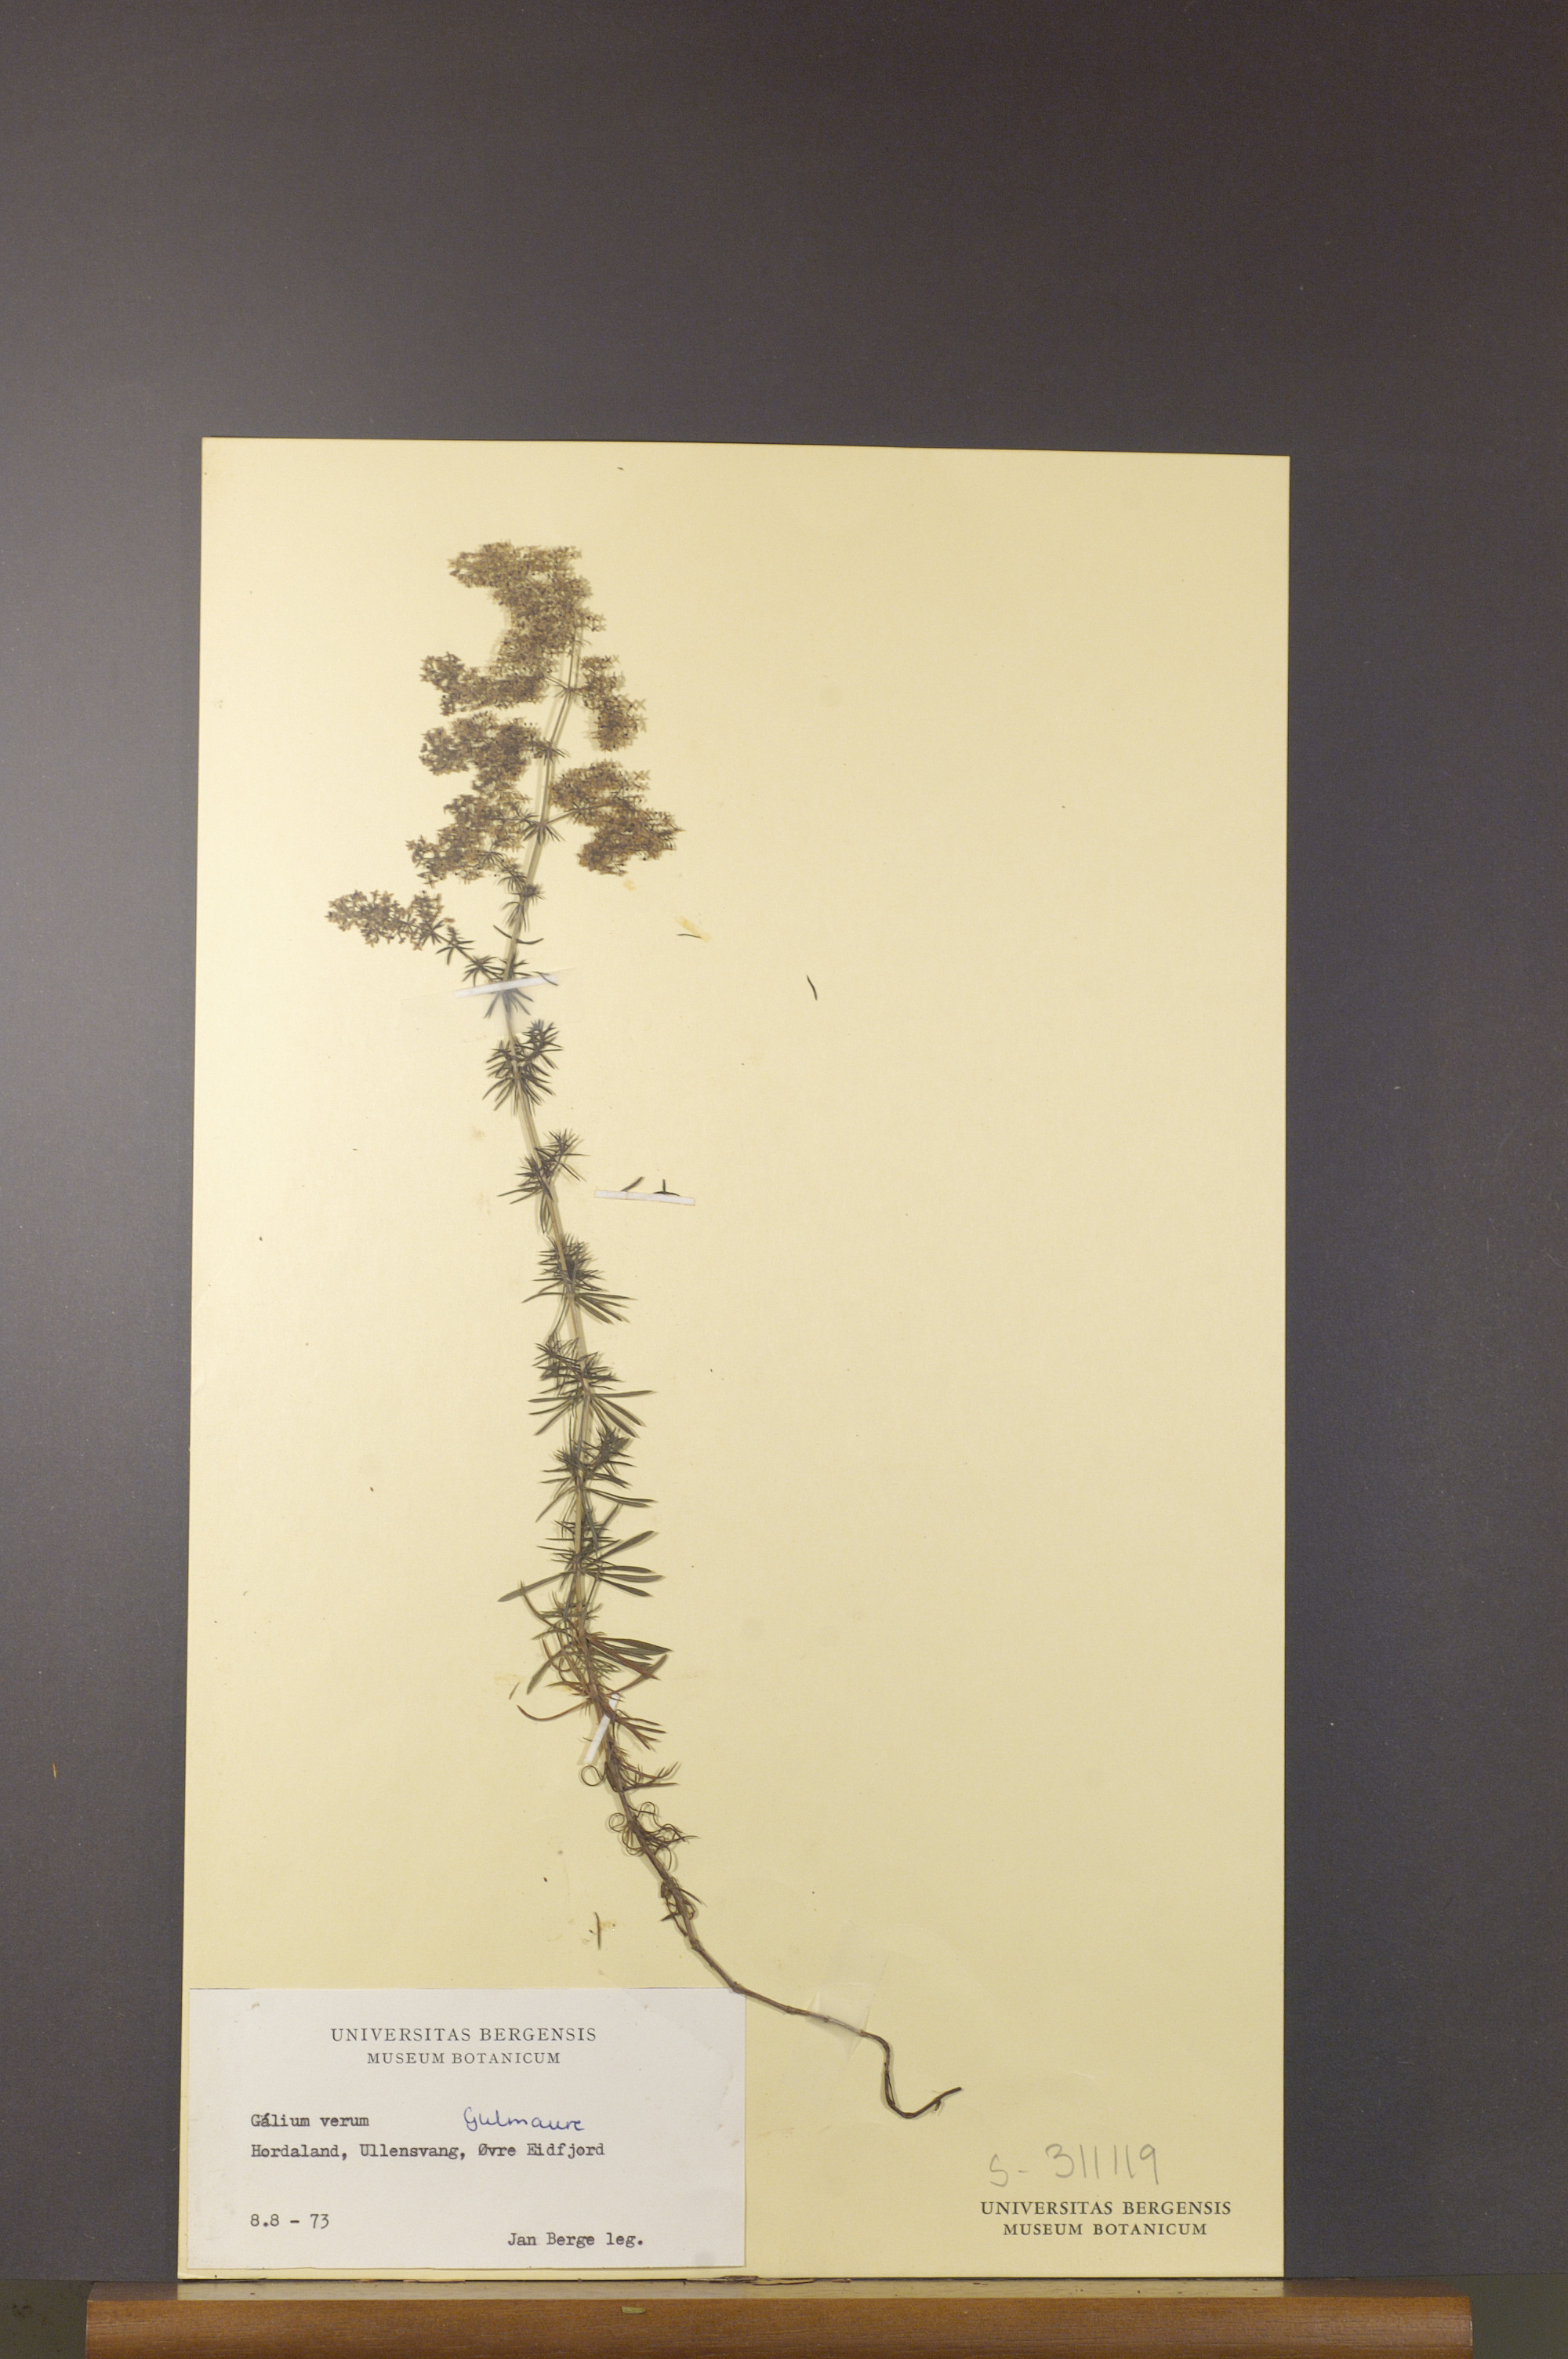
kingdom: Plantae
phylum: Tracheophyta
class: Magnoliopsida
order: Gentianales
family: Rubiaceae
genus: Galium
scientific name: Galium verum
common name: Lady's bedstraw
